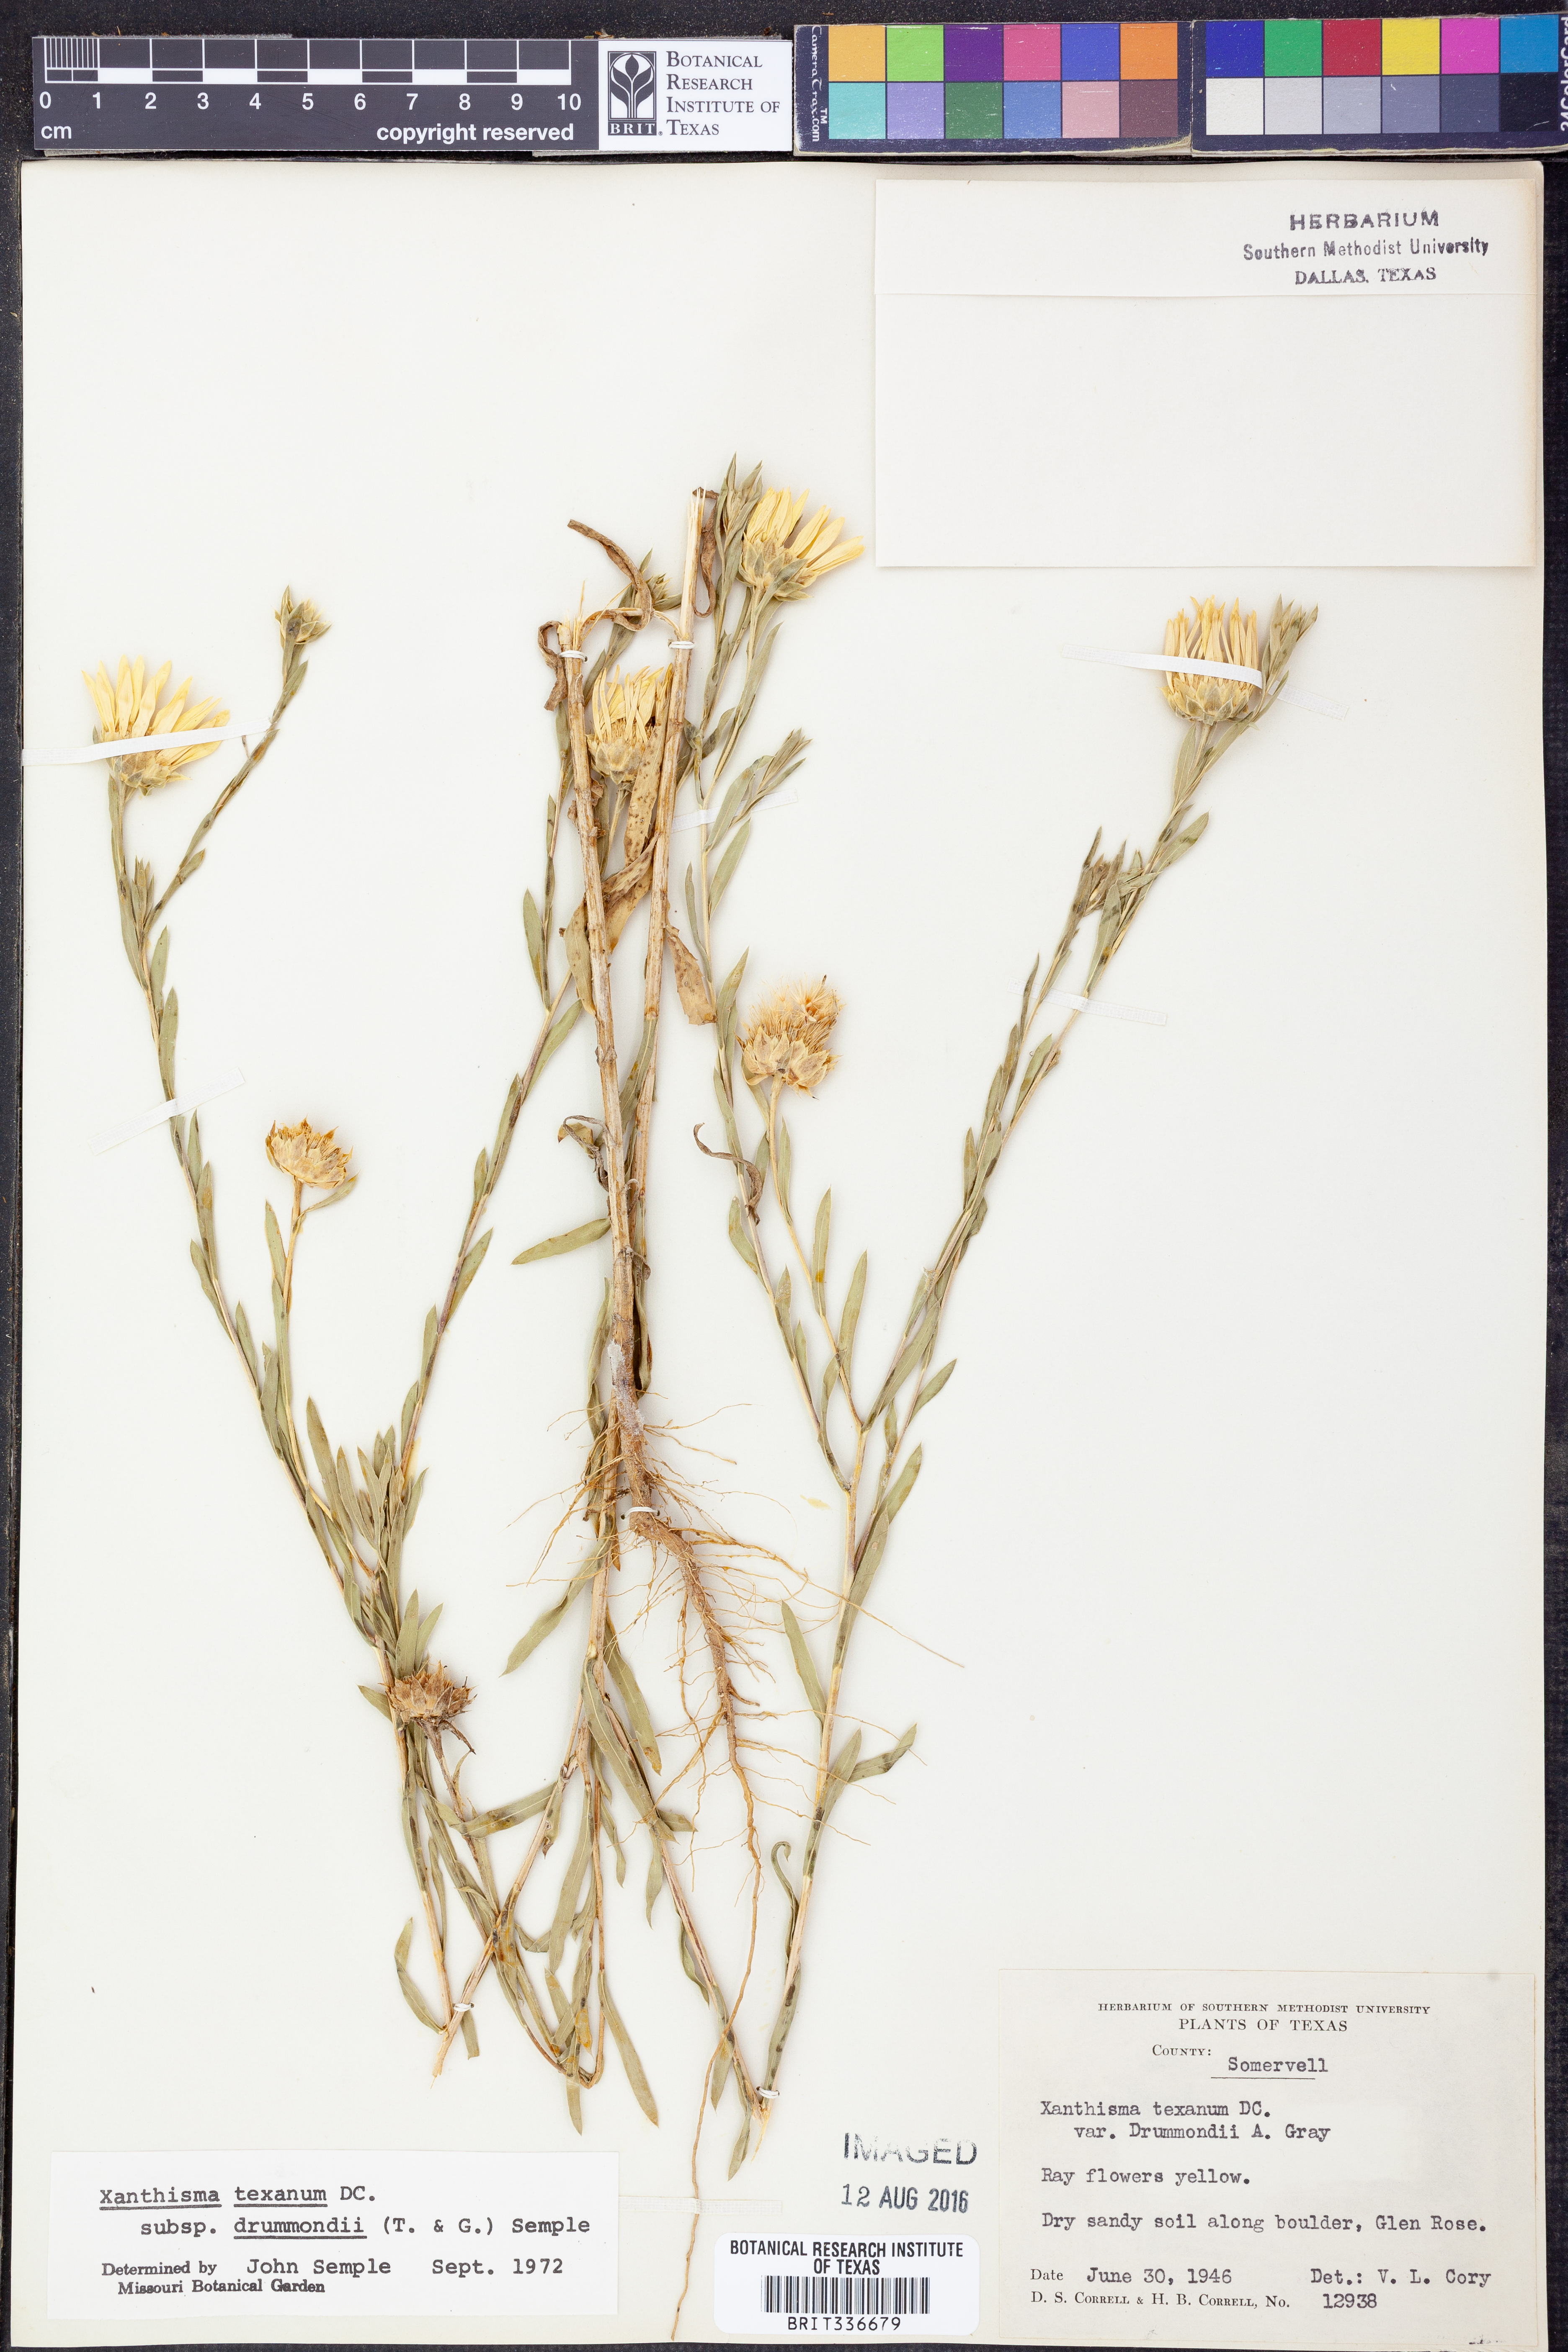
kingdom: Plantae
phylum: Tracheophyta
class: Magnoliopsida
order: Asterales
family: Asteraceae
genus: Xanthisma
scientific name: Xanthisma texanum
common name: Texas sleepy daisy
